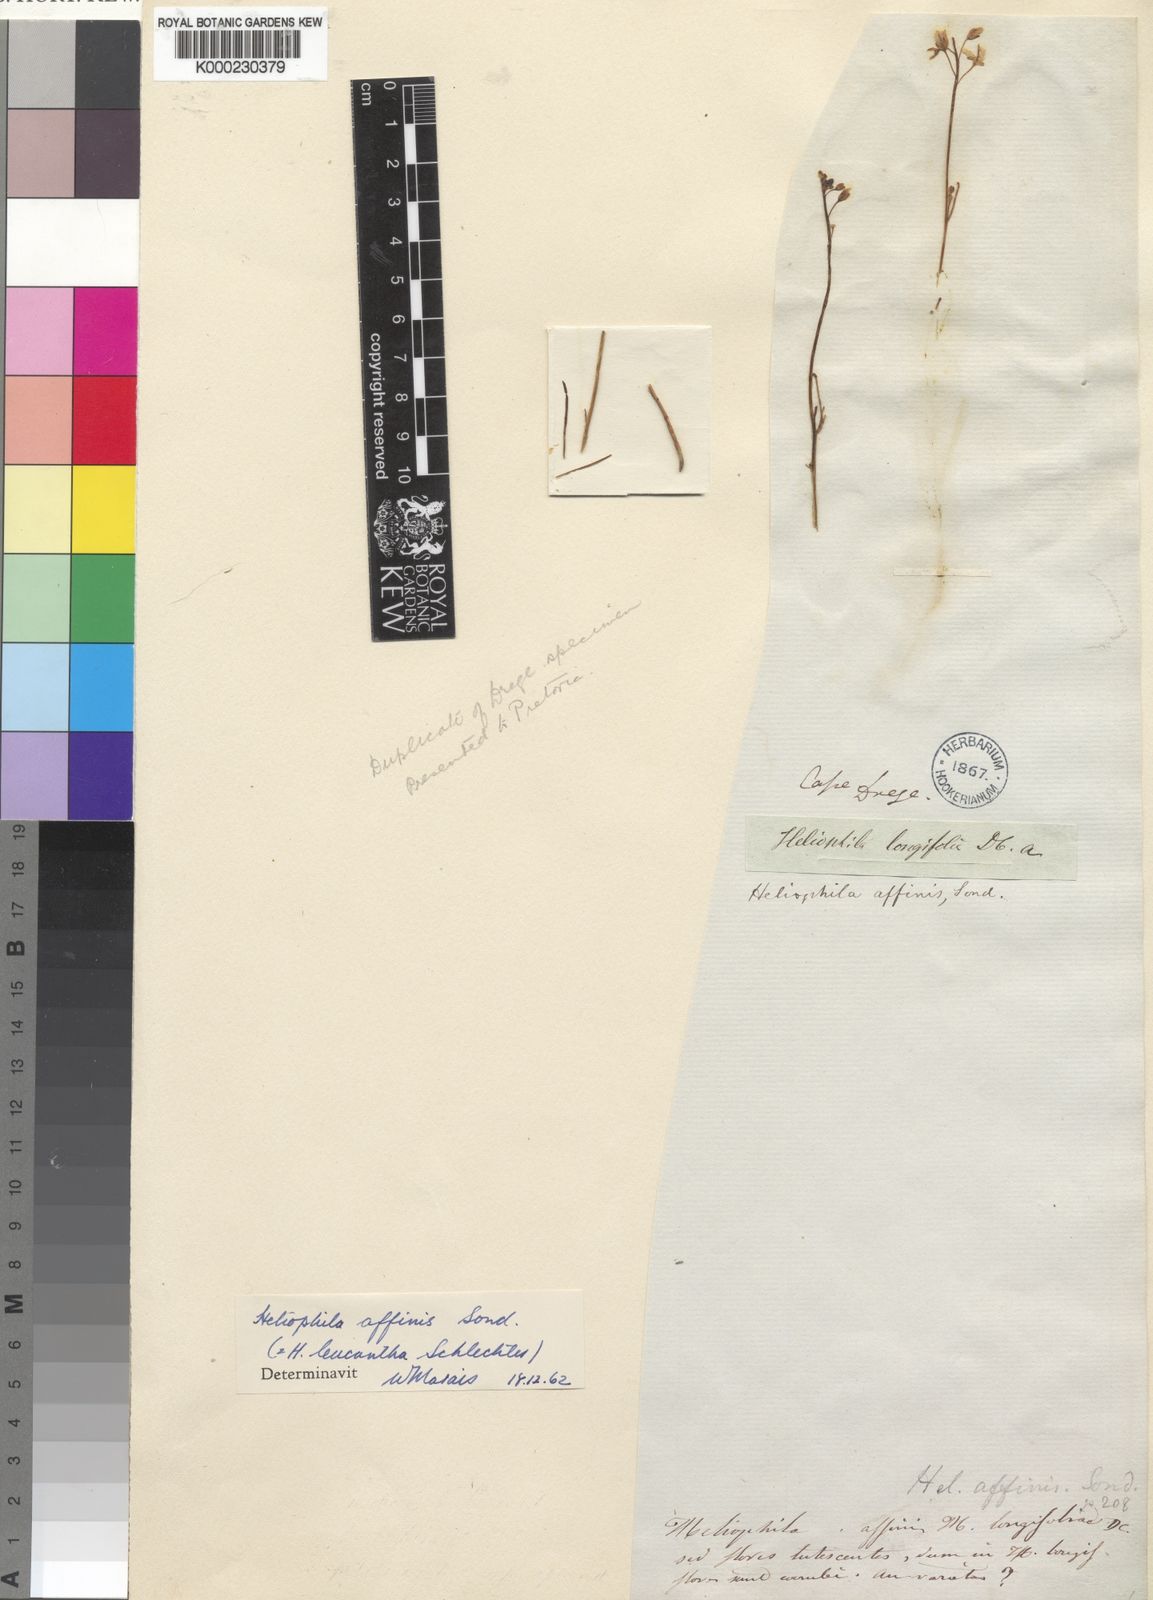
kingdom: Plantae
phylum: Tracheophyta
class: Magnoliopsida
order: Brassicales
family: Brassicaceae
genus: Heliophila
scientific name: Heliophila affinis
